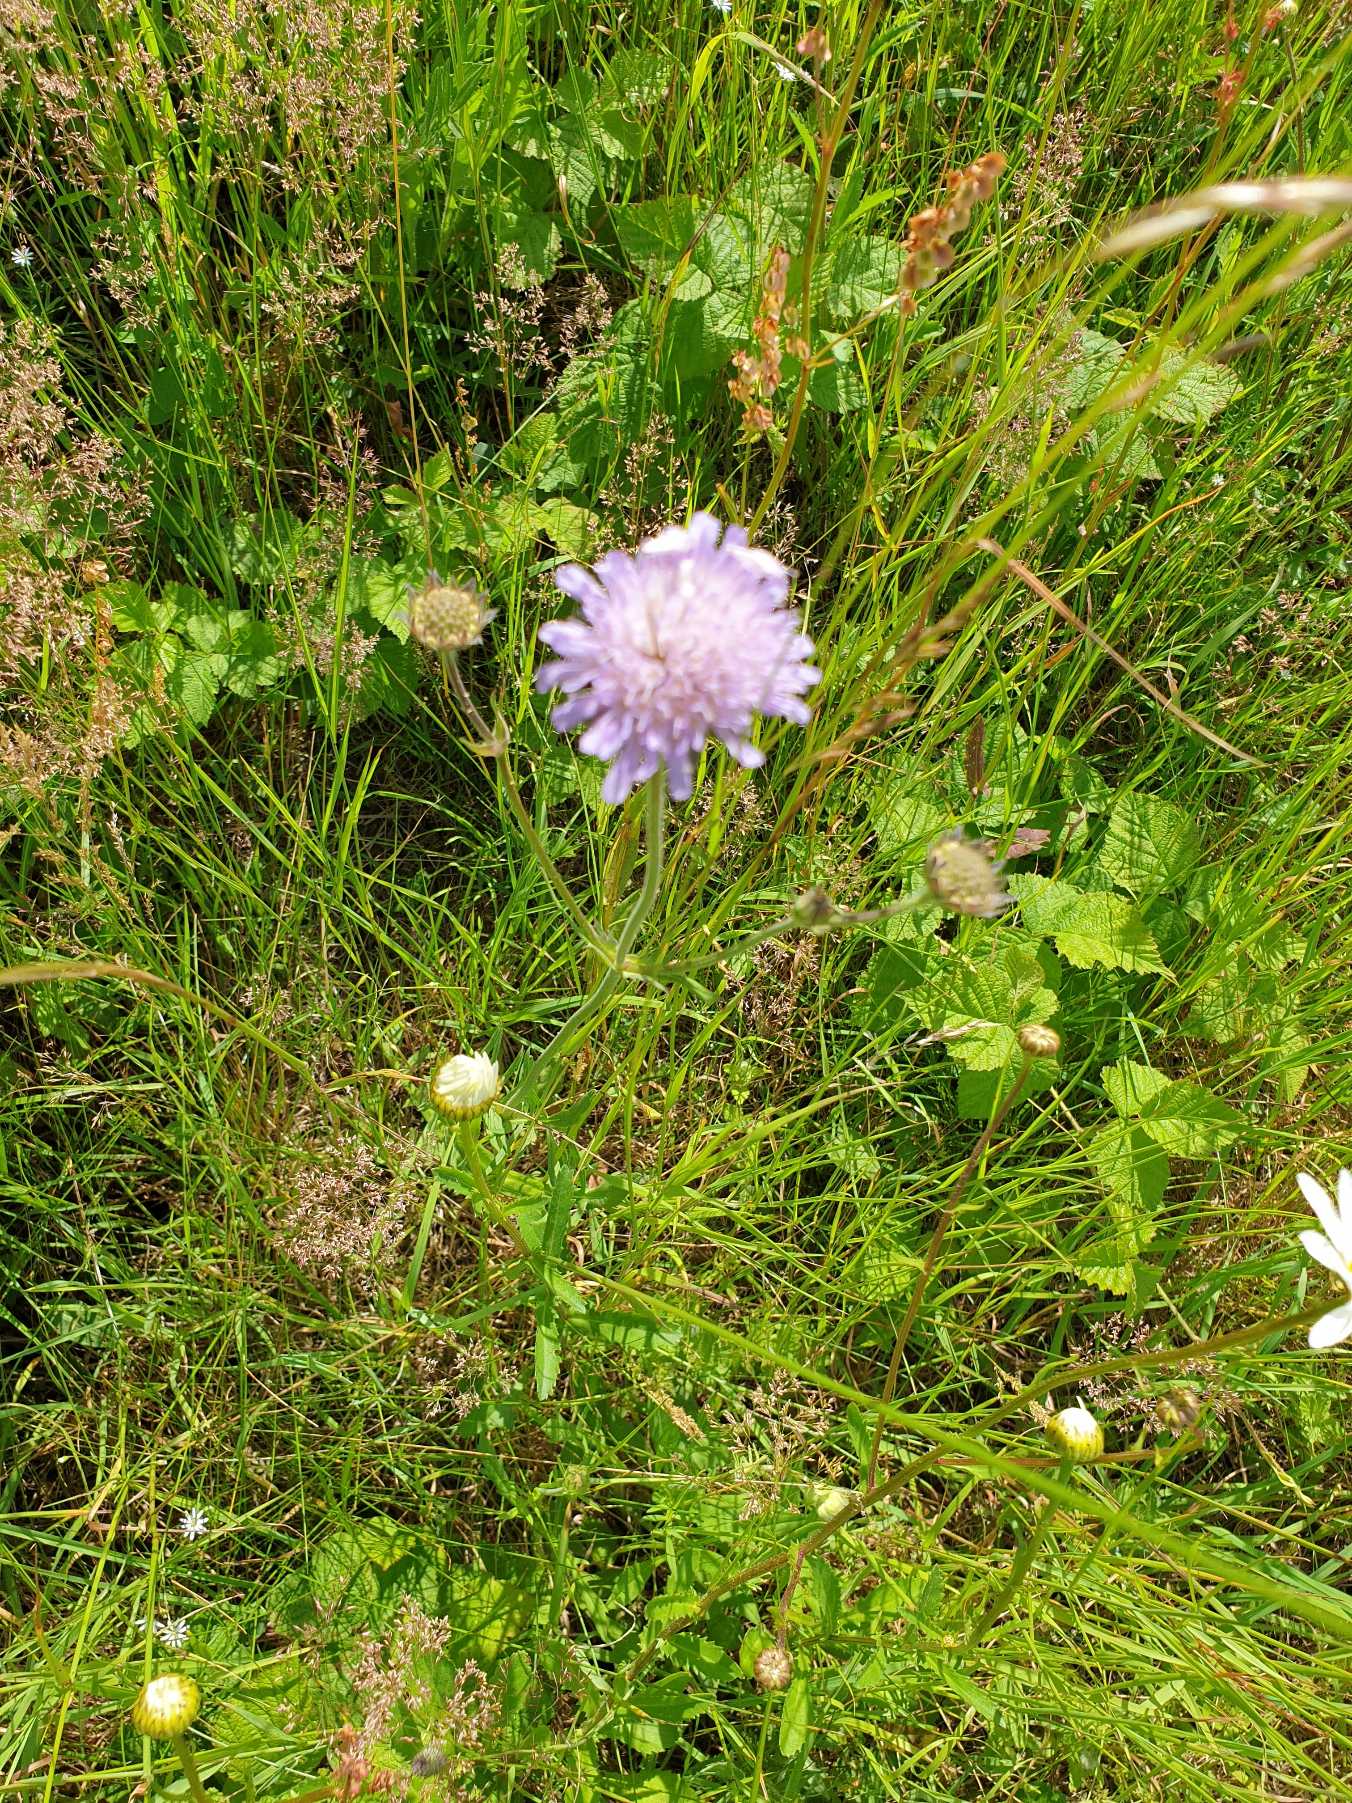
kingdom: Plantae
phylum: Tracheophyta
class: Magnoliopsida
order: Dipsacales
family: Caprifoliaceae
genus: Knautia
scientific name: Knautia arvensis
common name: Blåhat
